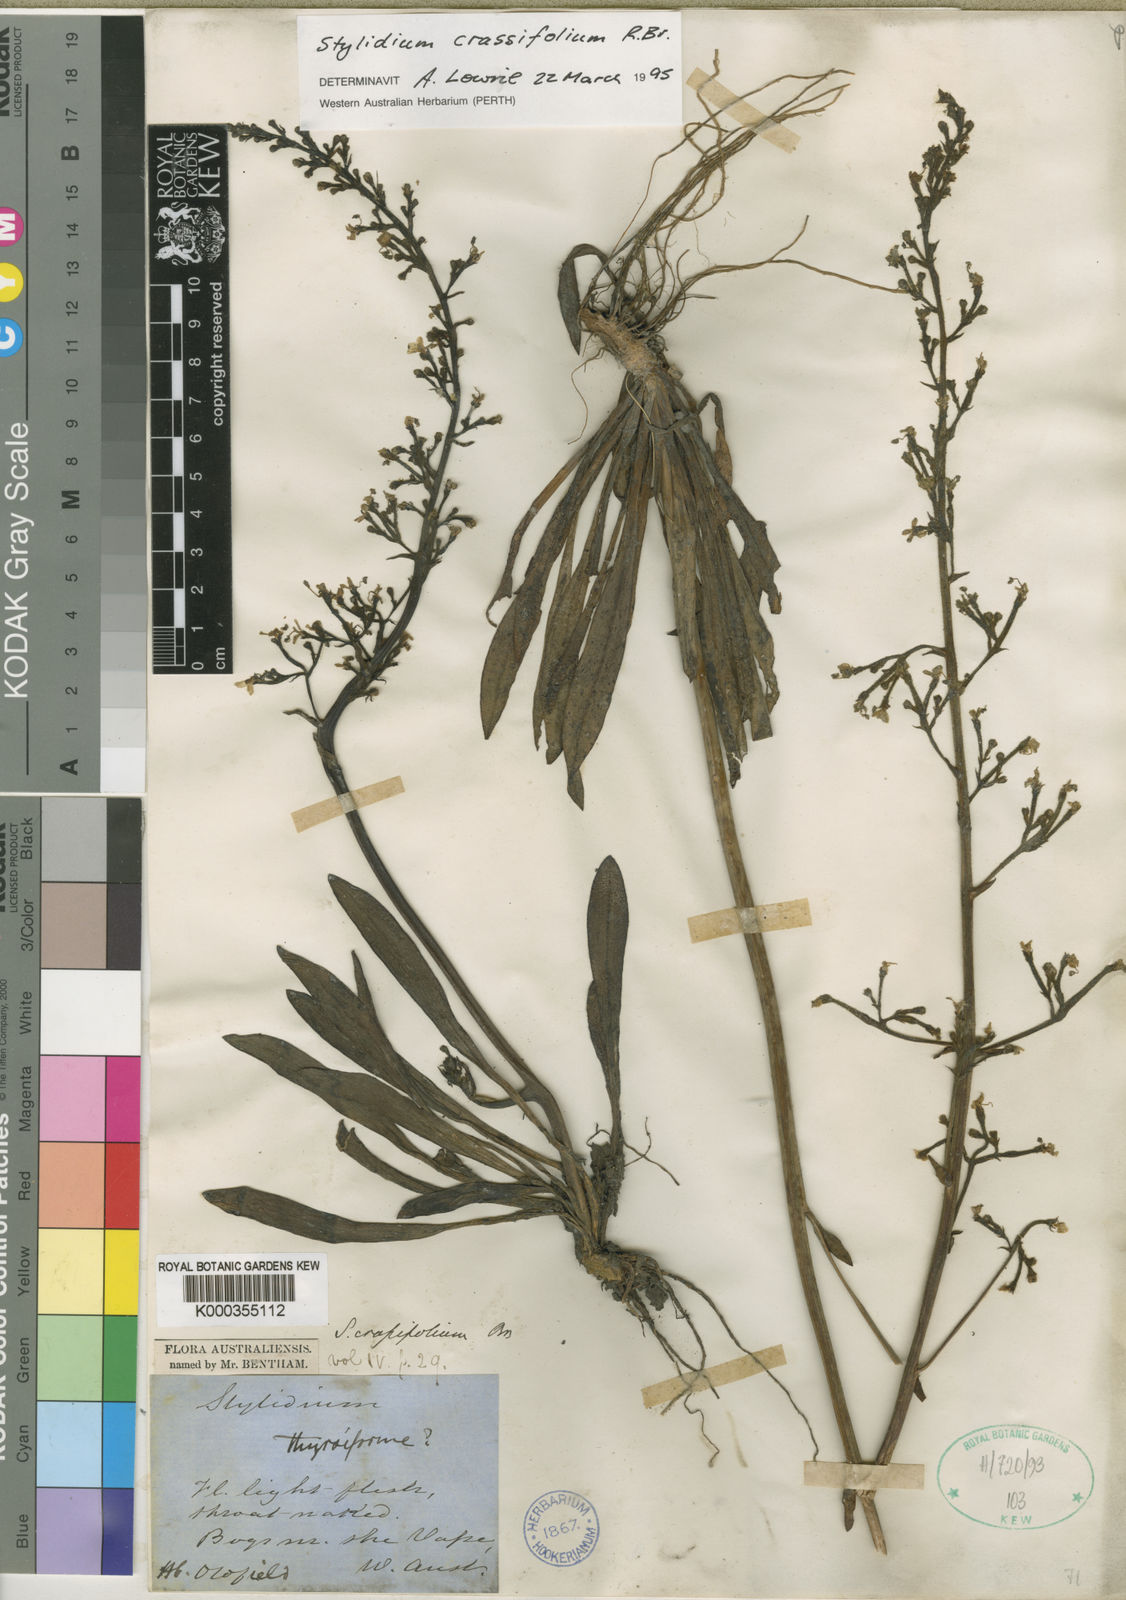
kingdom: Plantae
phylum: Tracheophyta
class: Magnoliopsida
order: Asterales
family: Stylidiaceae
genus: Stylidium
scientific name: Stylidium crassifolium
